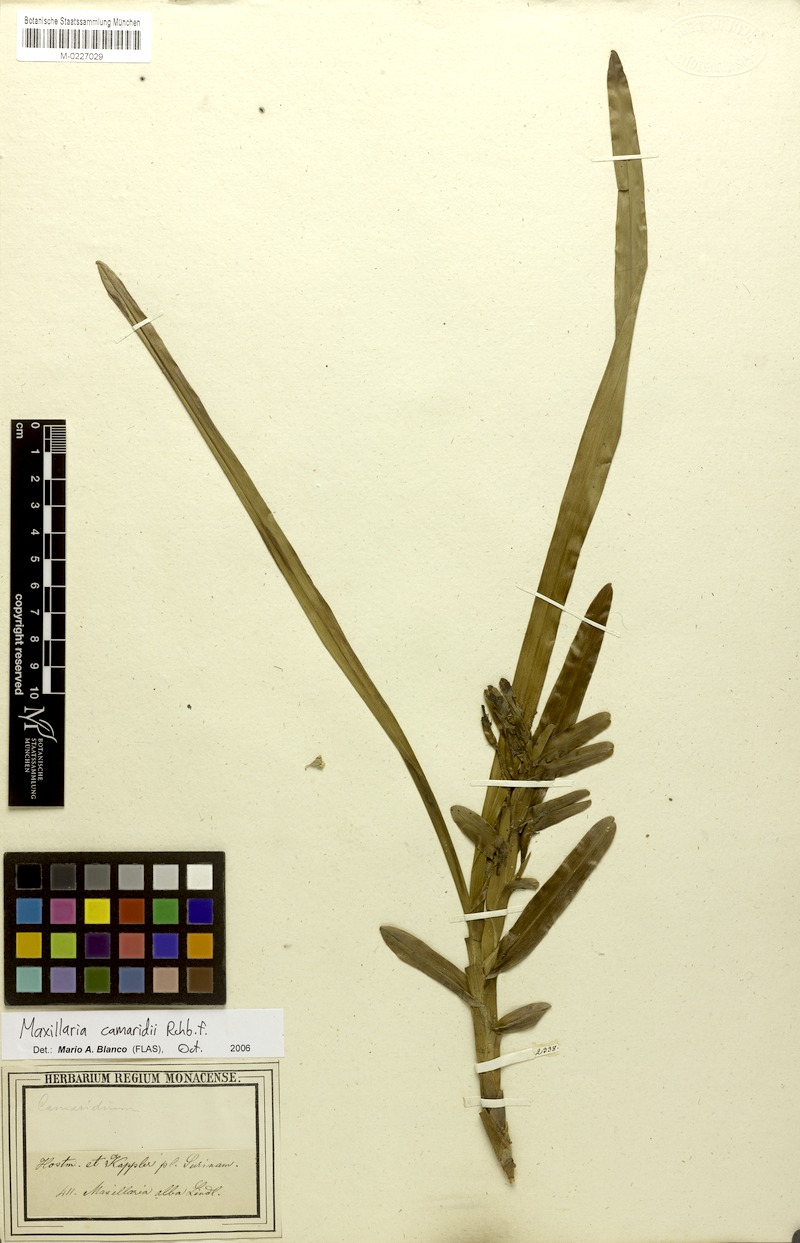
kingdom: Plantae
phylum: Tracheophyta
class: Liliopsida
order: Asparagales
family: Orchidaceae
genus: Maxillaria
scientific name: Maxillaria lutescens
